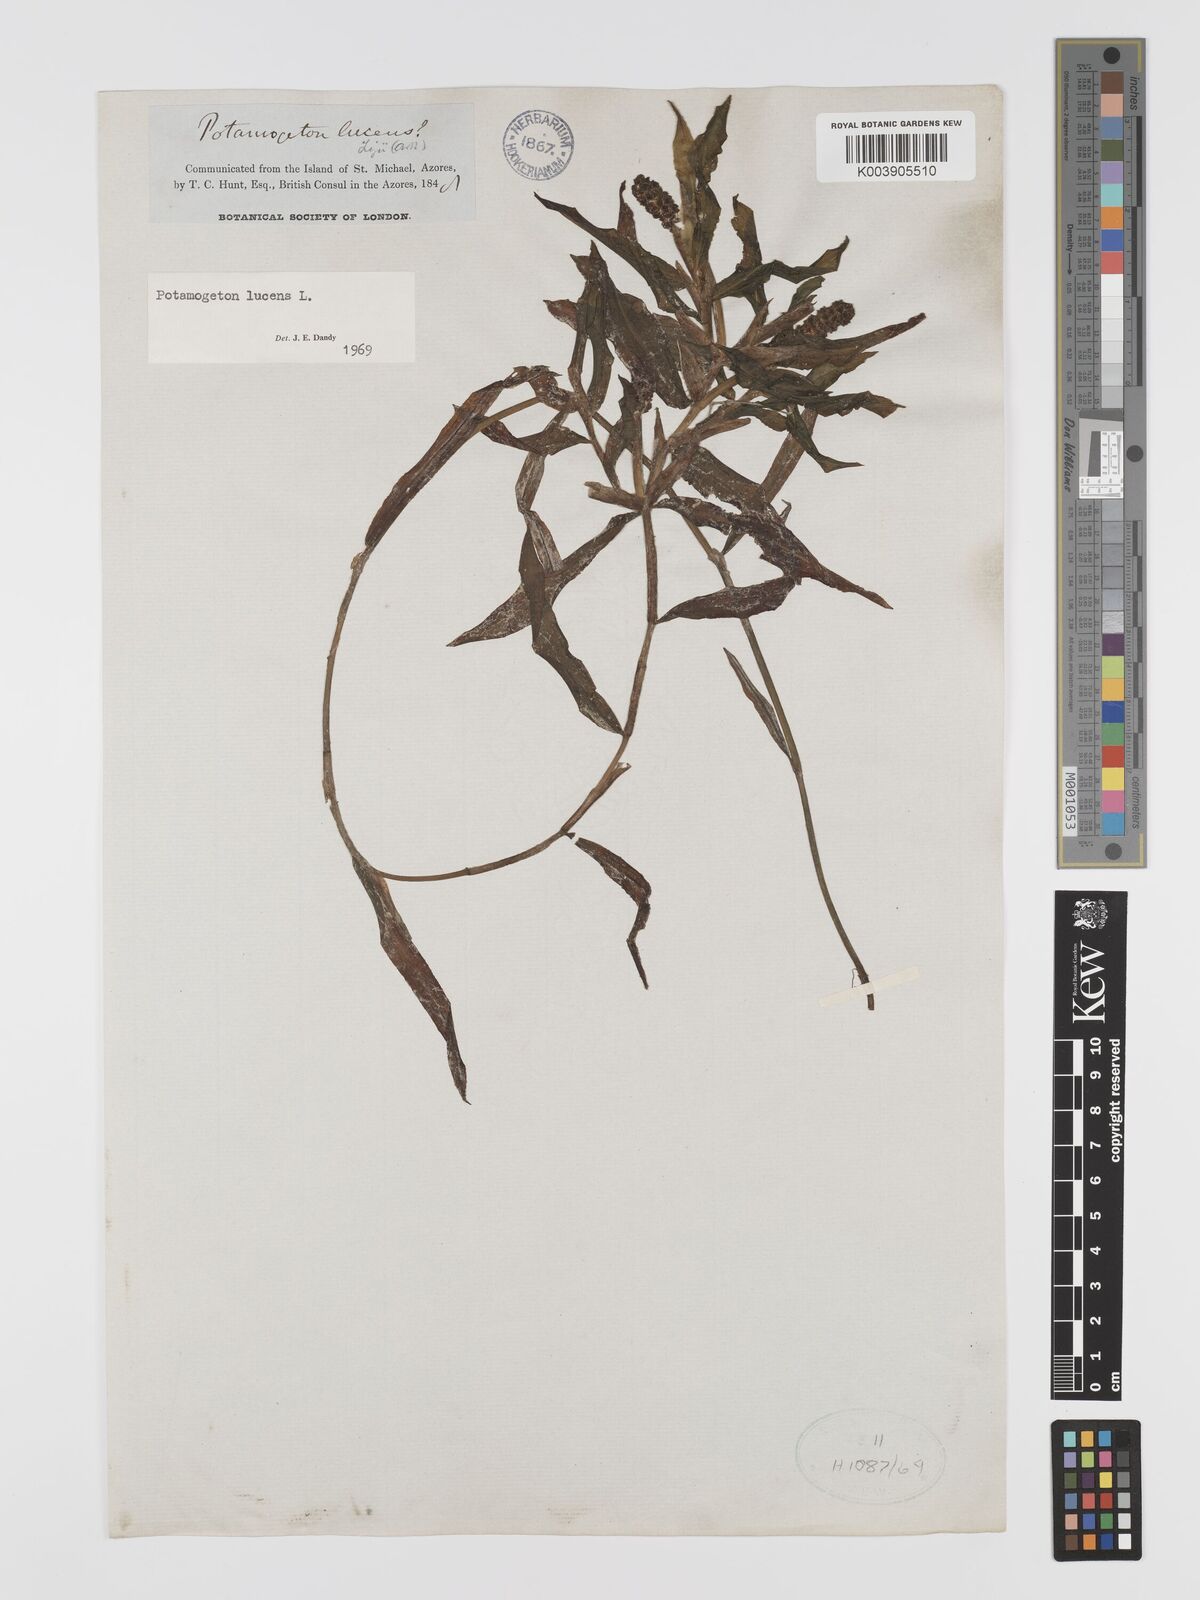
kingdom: Plantae
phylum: Tracheophyta
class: Liliopsida
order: Alismatales
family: Potamogetonaceae
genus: Potamogeton
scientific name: Potamogeton lucens
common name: Shining pondweed
